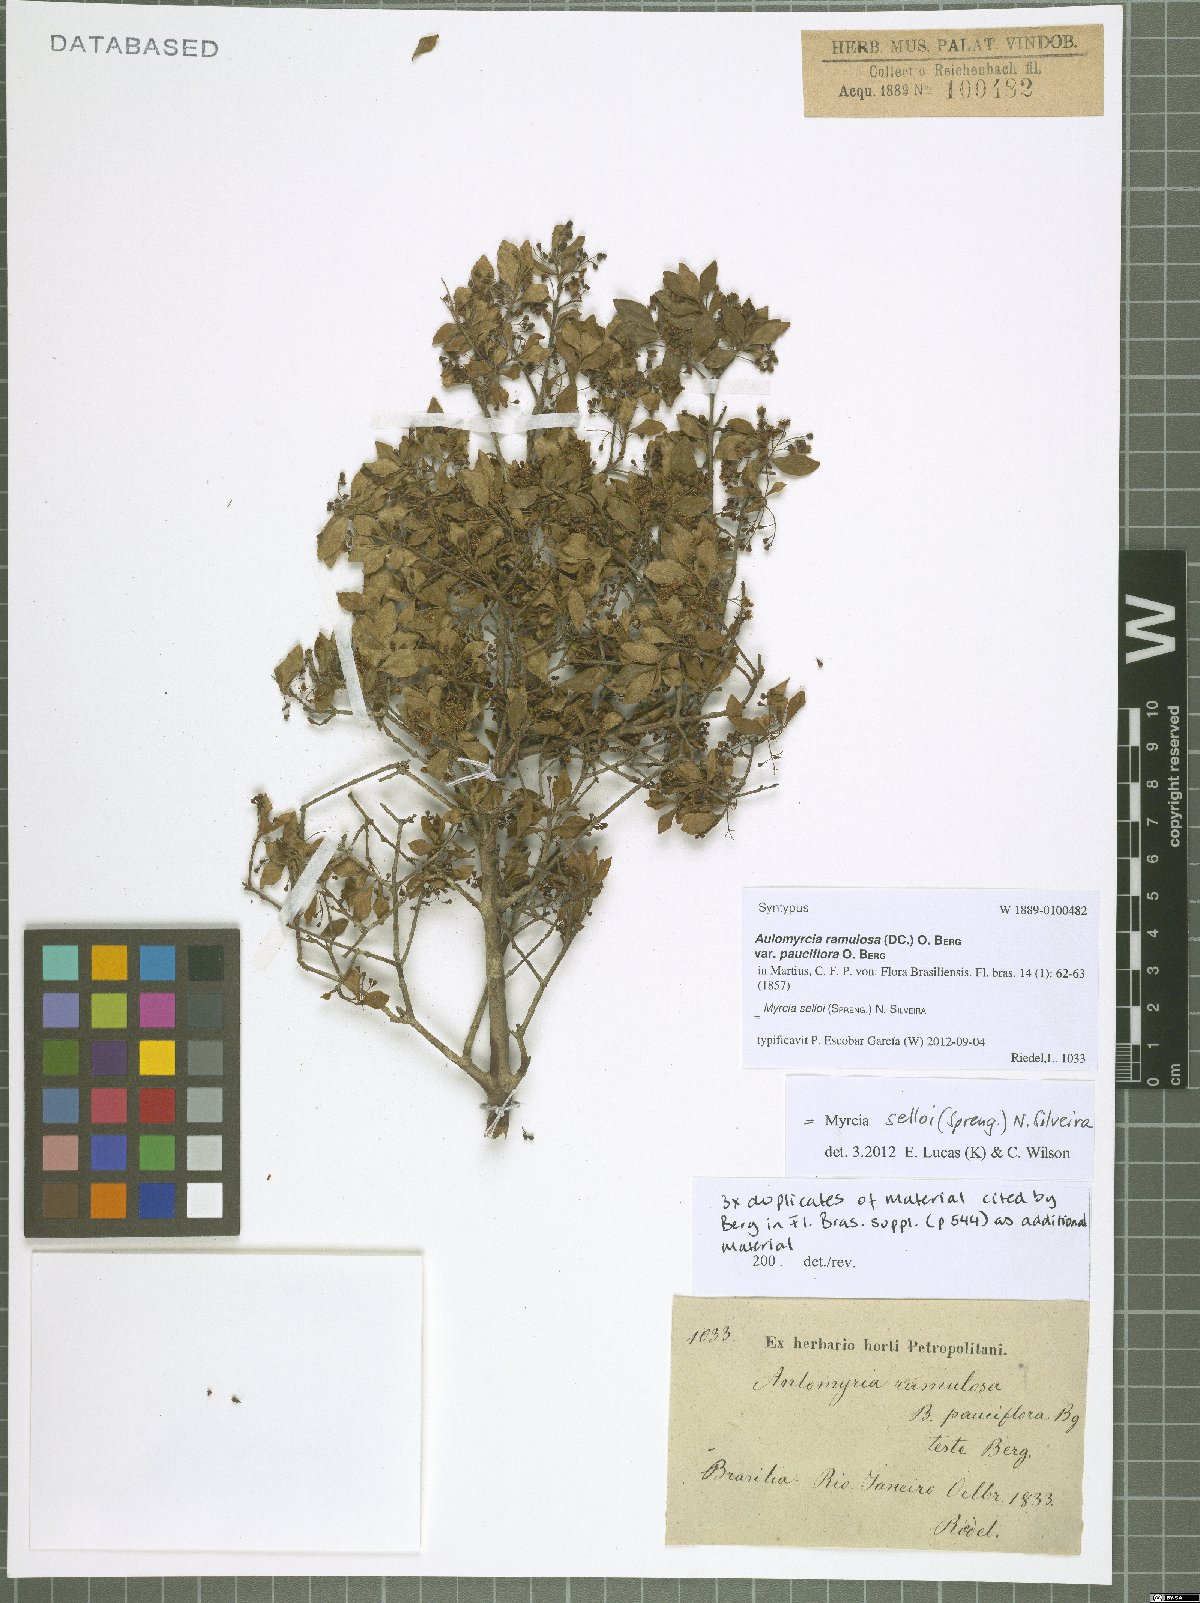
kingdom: Plantae
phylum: Tracheophyta
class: Magnoliopsida
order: Myrtales
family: Myrtaceae
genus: Myrcia
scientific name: Myrcia selloi
